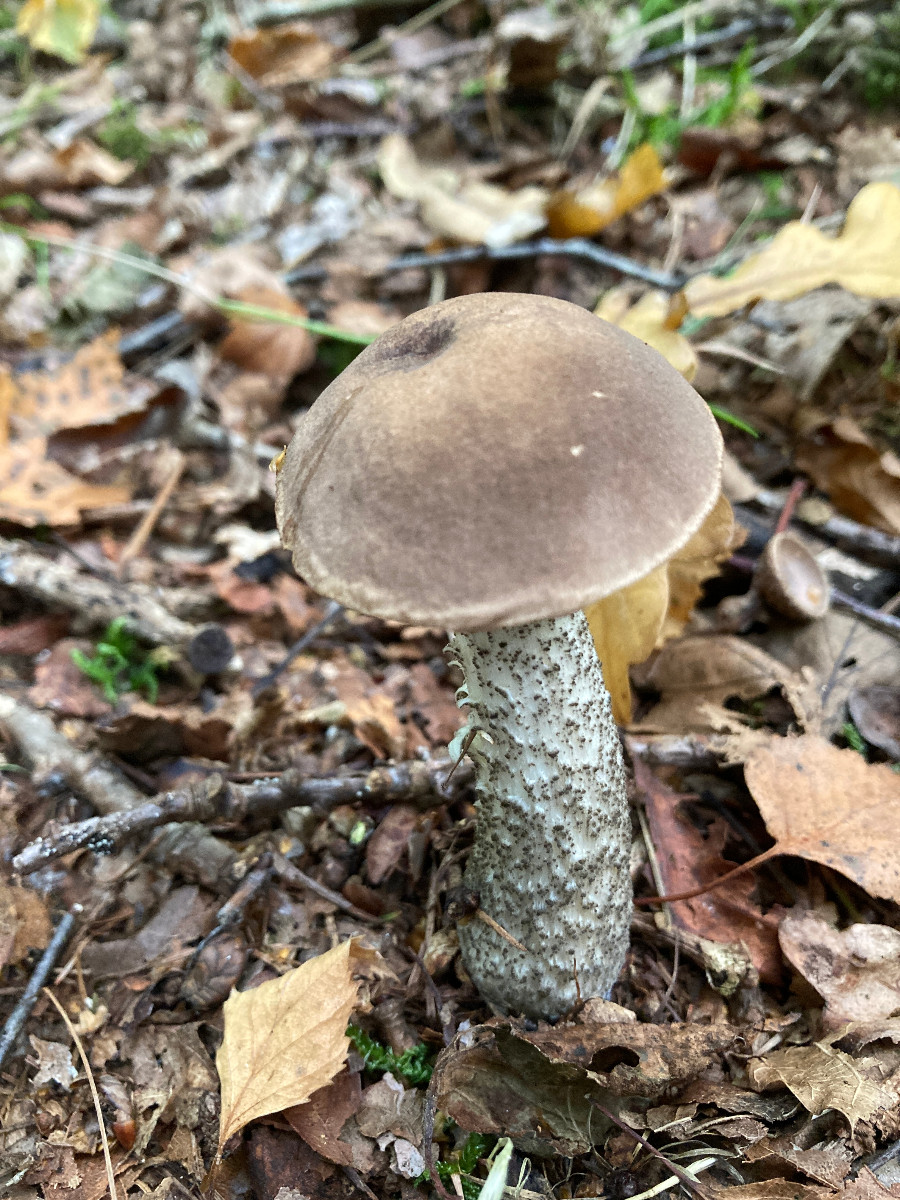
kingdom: Fungi
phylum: Basidiomycota
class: Agaricomycetes
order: Boletales
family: Boletaceae
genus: Leccinum
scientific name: Leccinum scabrum
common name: brun skælrørhat
